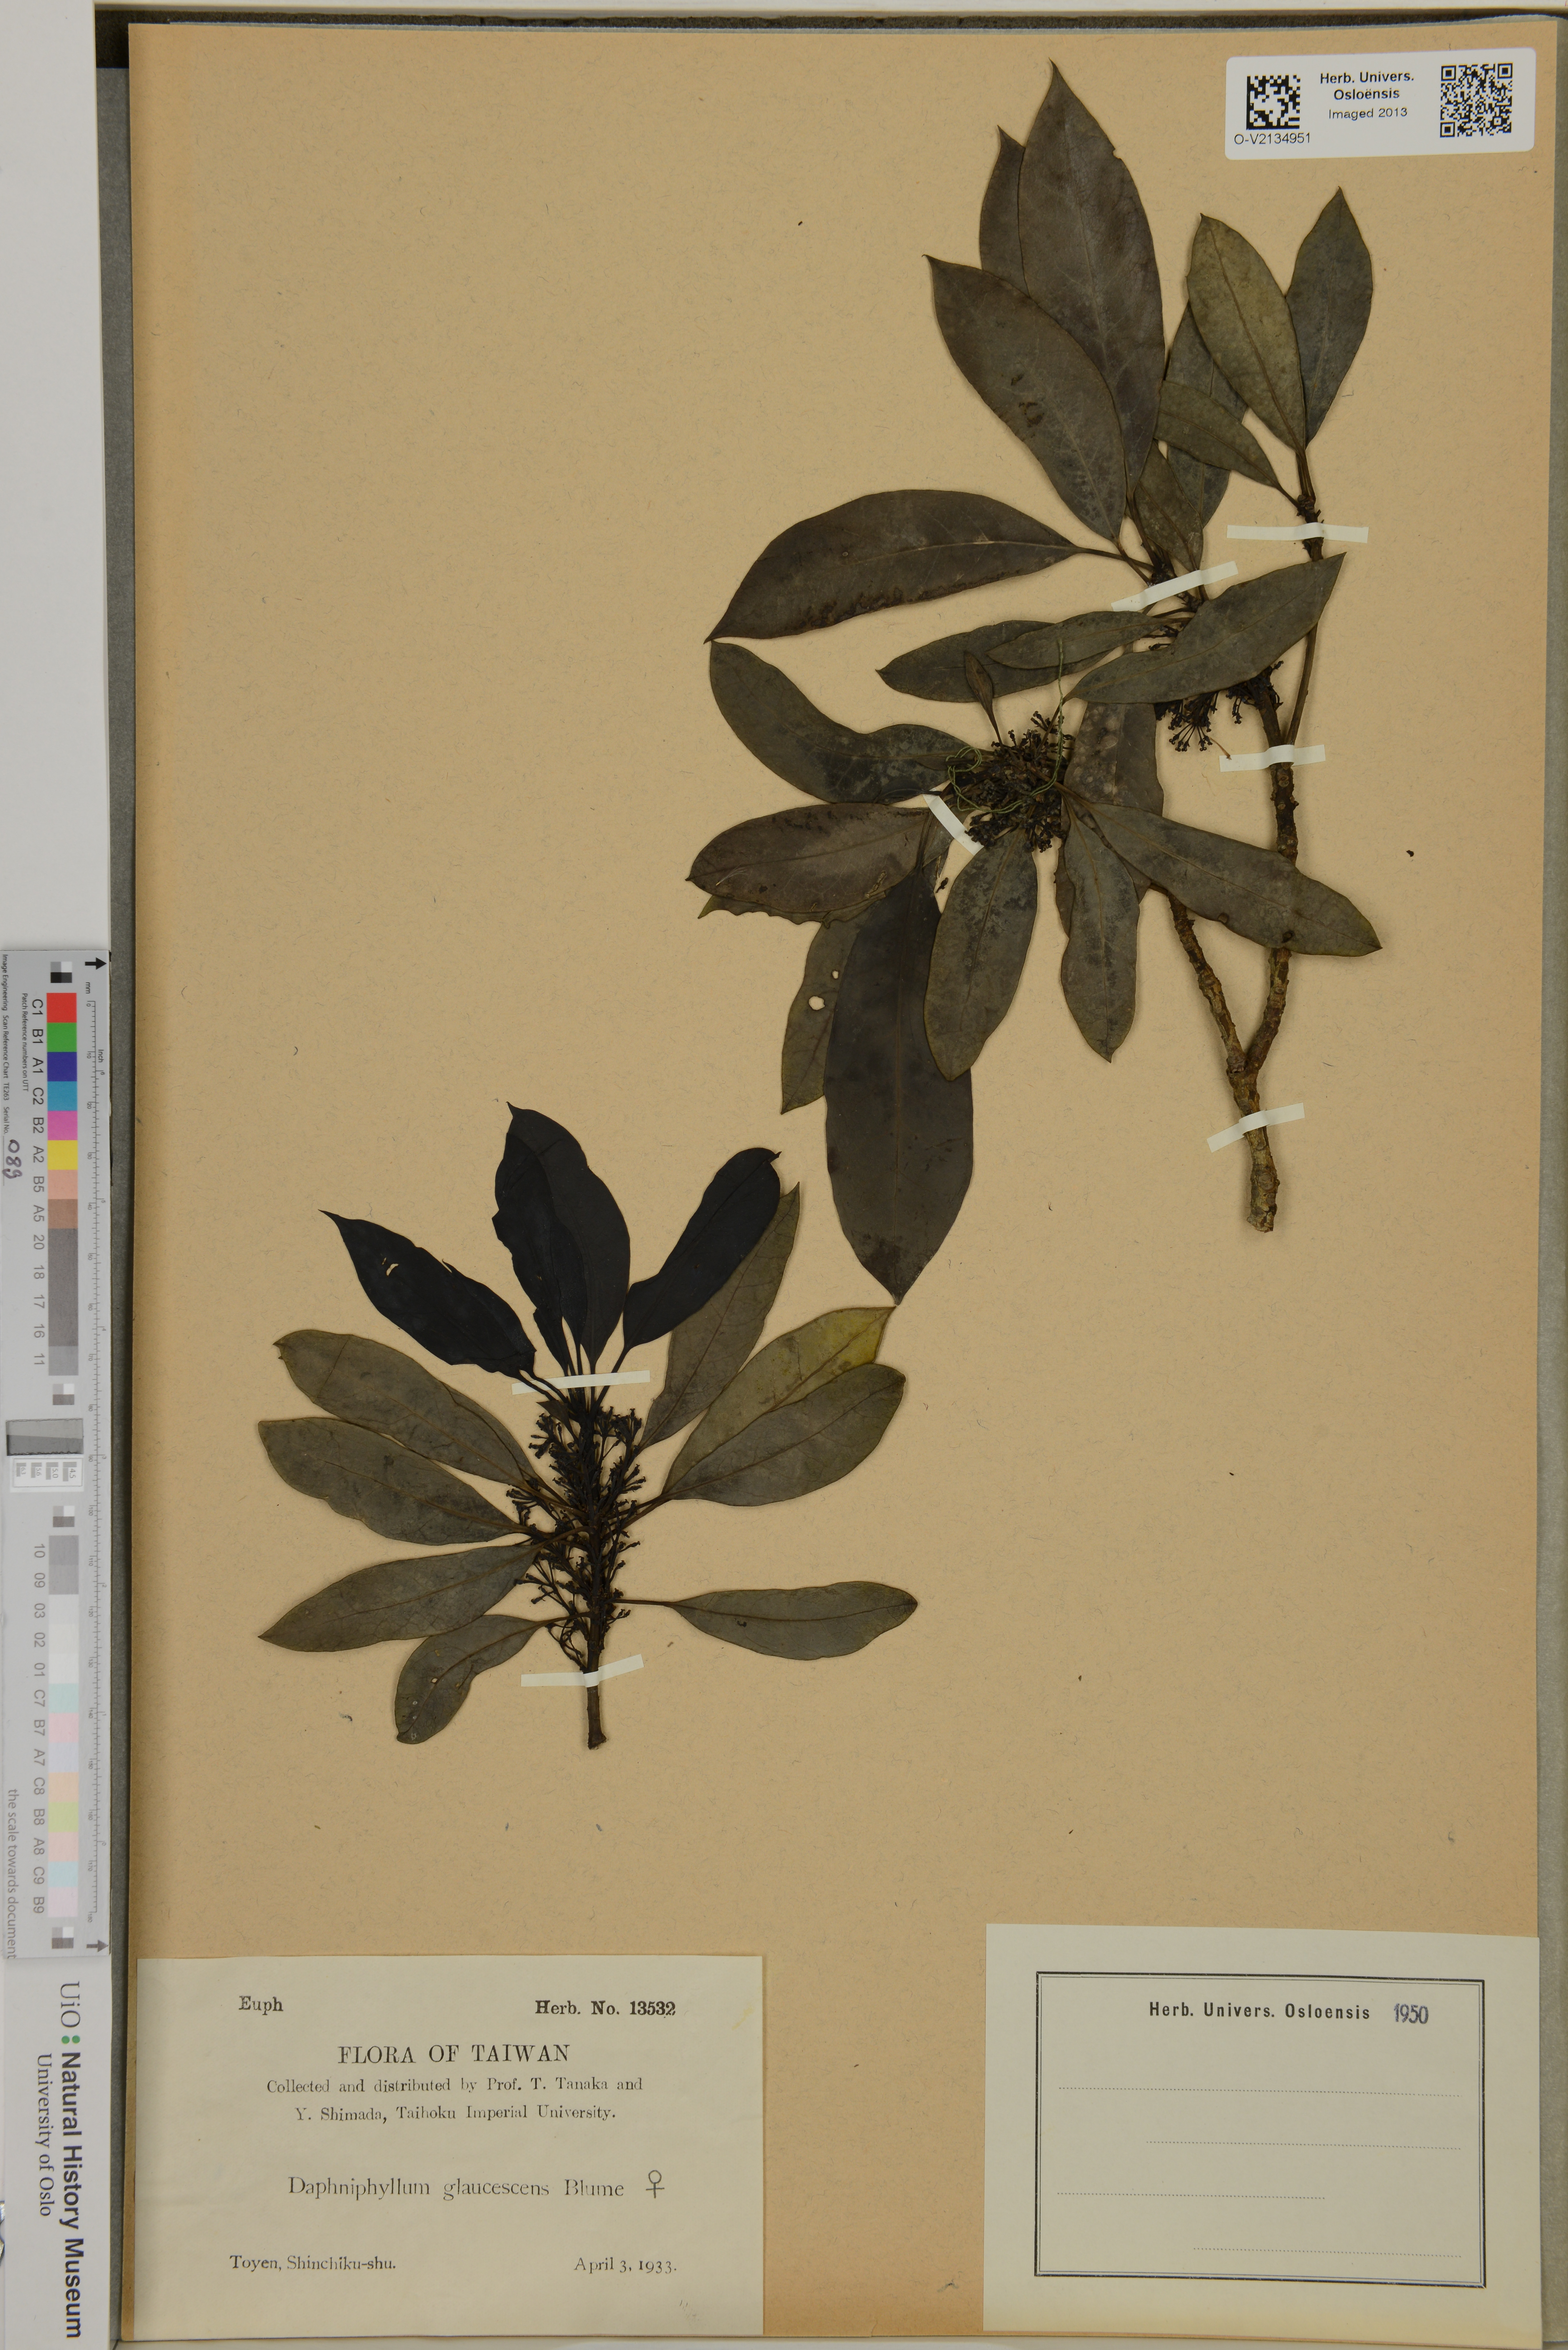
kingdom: Plantae
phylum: Tracheophyta
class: Magnoliopsida
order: Saxifragales
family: Daphniphyllaceae
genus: Daphniphyllum
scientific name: Daphniphyllum glaucescens
